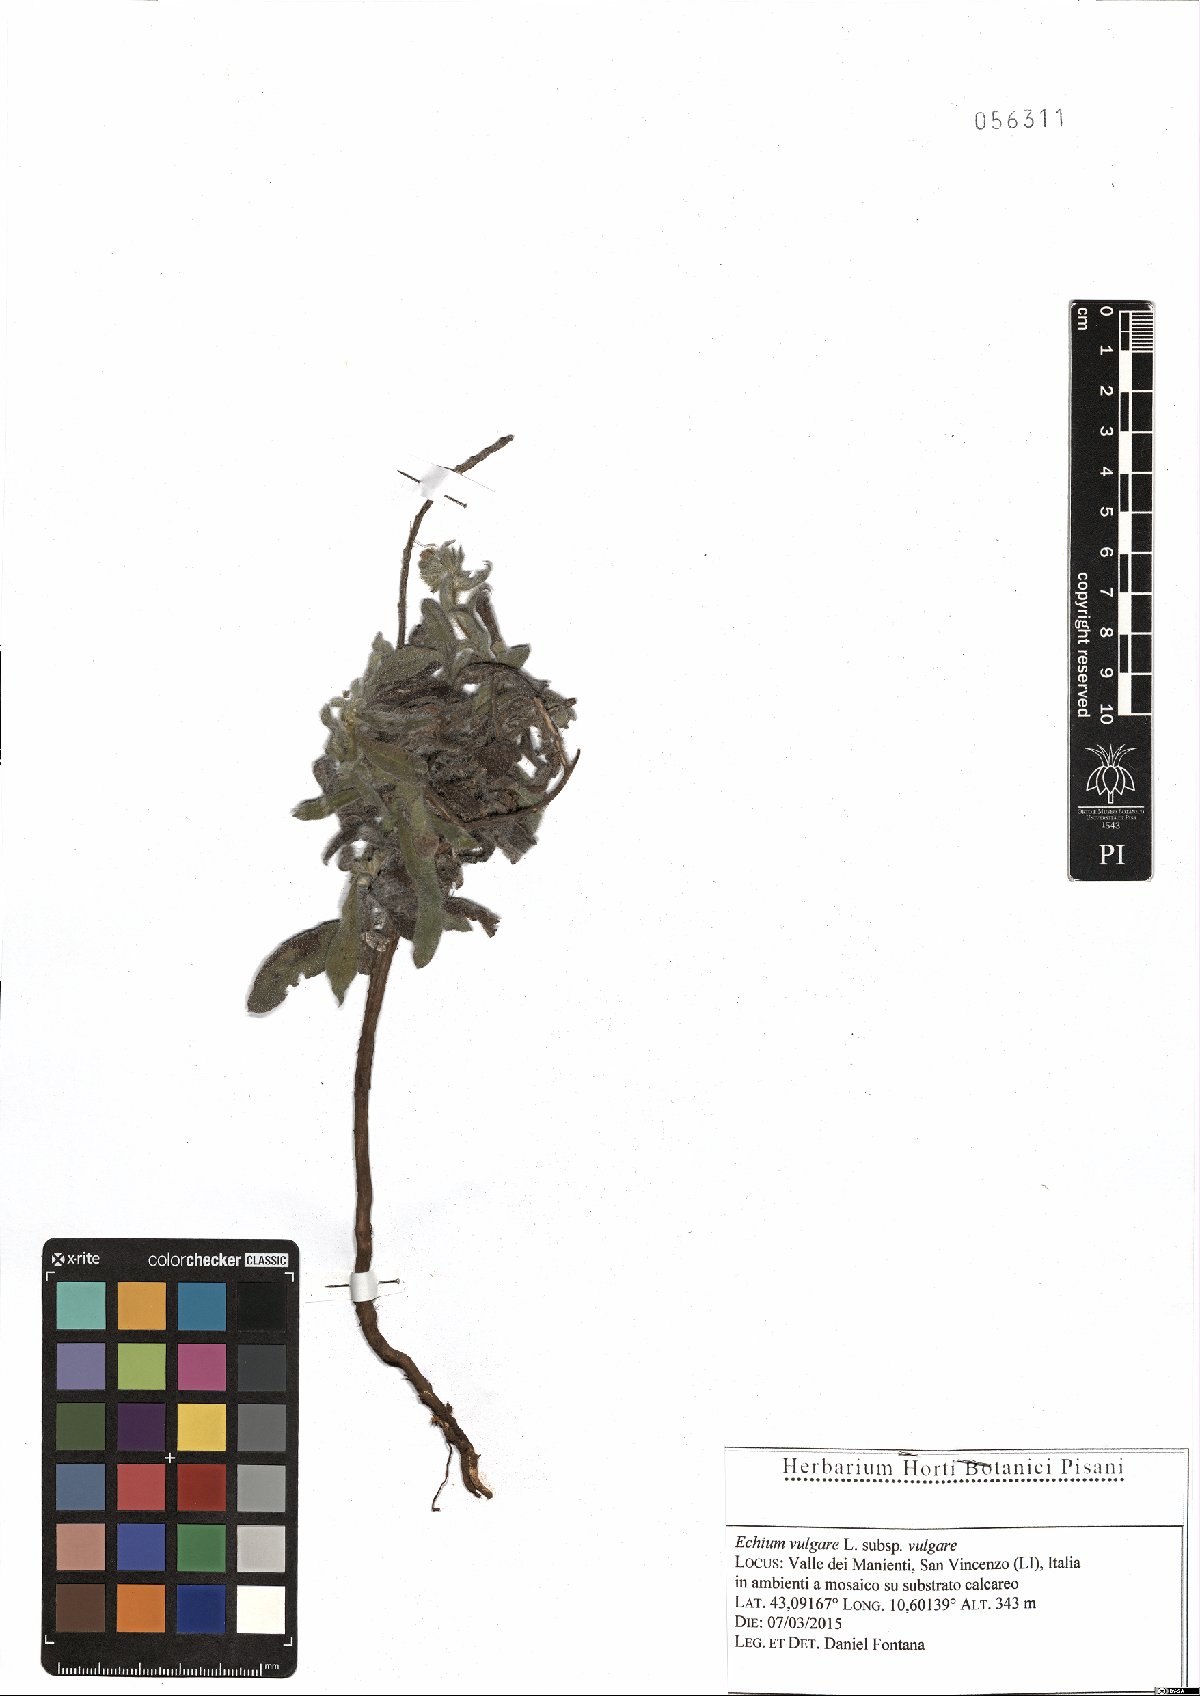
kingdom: Plantae
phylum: Tracheophyta
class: Magnoliopsida
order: Boraginales
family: Boraginaceae
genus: Echium
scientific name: Echium vulgare
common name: Common viper's bugloss
